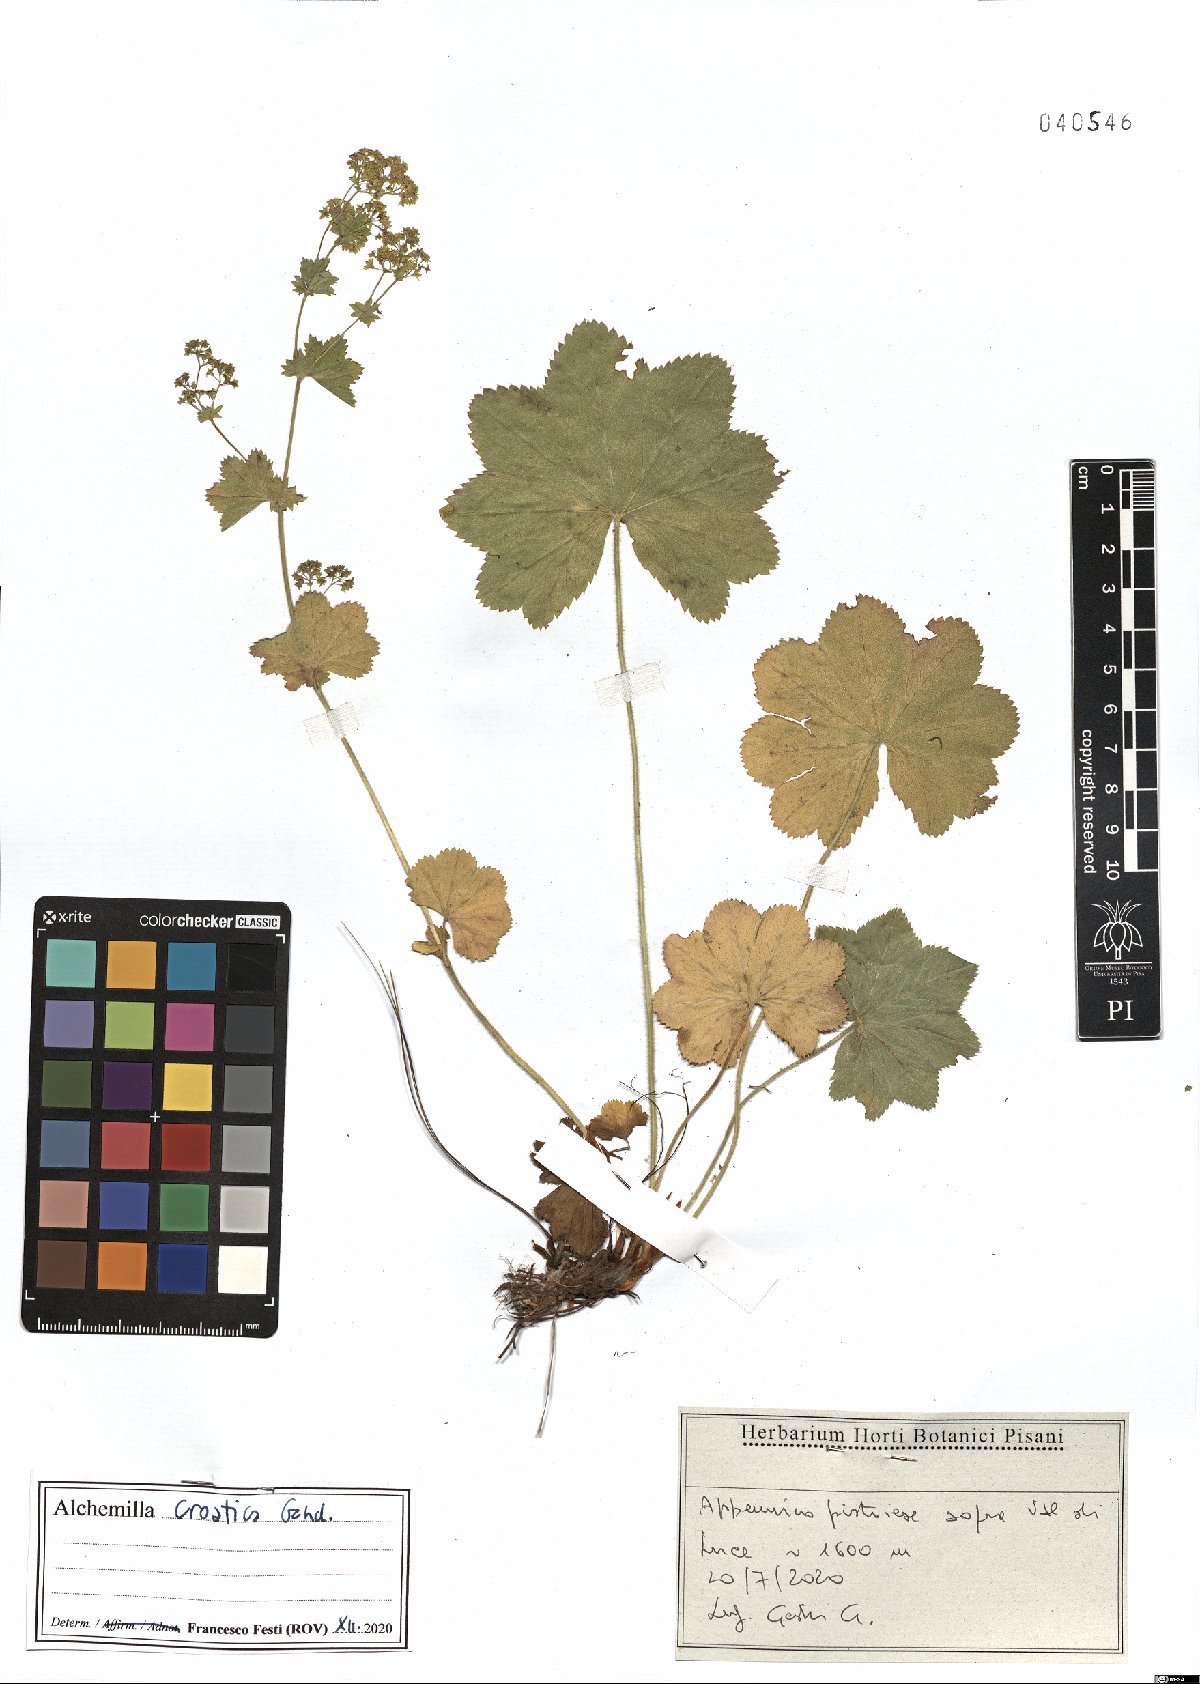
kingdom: Plantae
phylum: Tracheophyta
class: Magnoliopsida
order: Rosales
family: Rosaceae
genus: Alchemilla
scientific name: Alchemilla croatica
